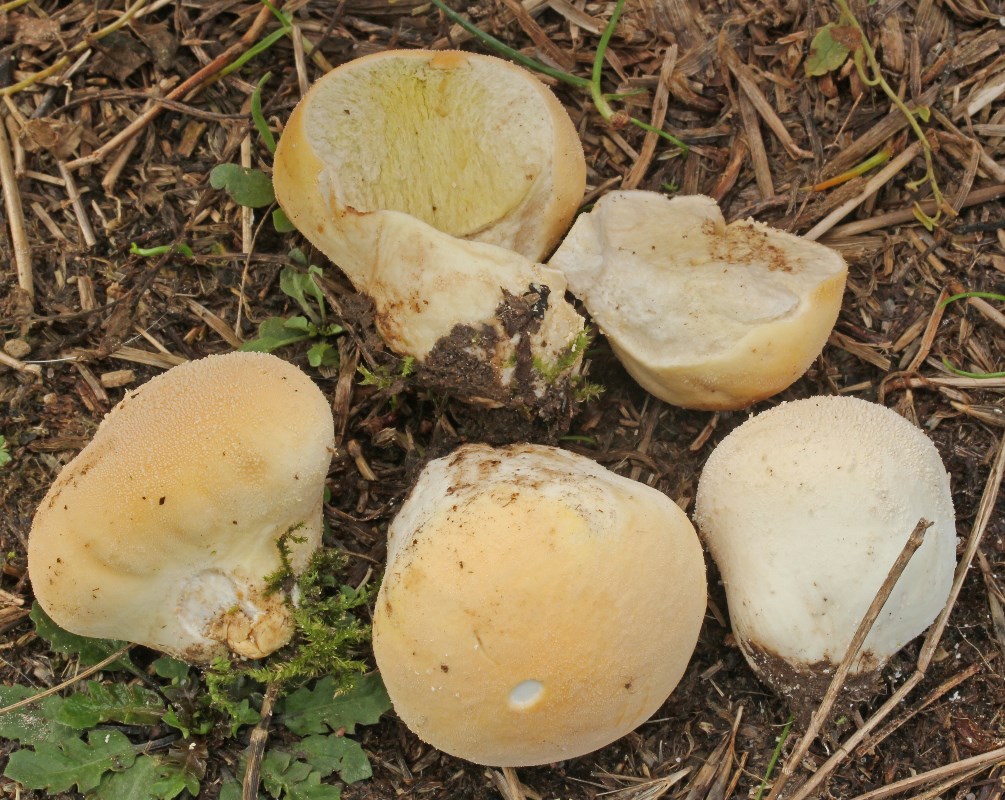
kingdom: Fungi
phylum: Basidiomycota
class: Agaricomycetes
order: Agaricales
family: Lycoperdaceae
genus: Lycoperdon
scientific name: Lycoperdon pratense
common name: flad støvbold
